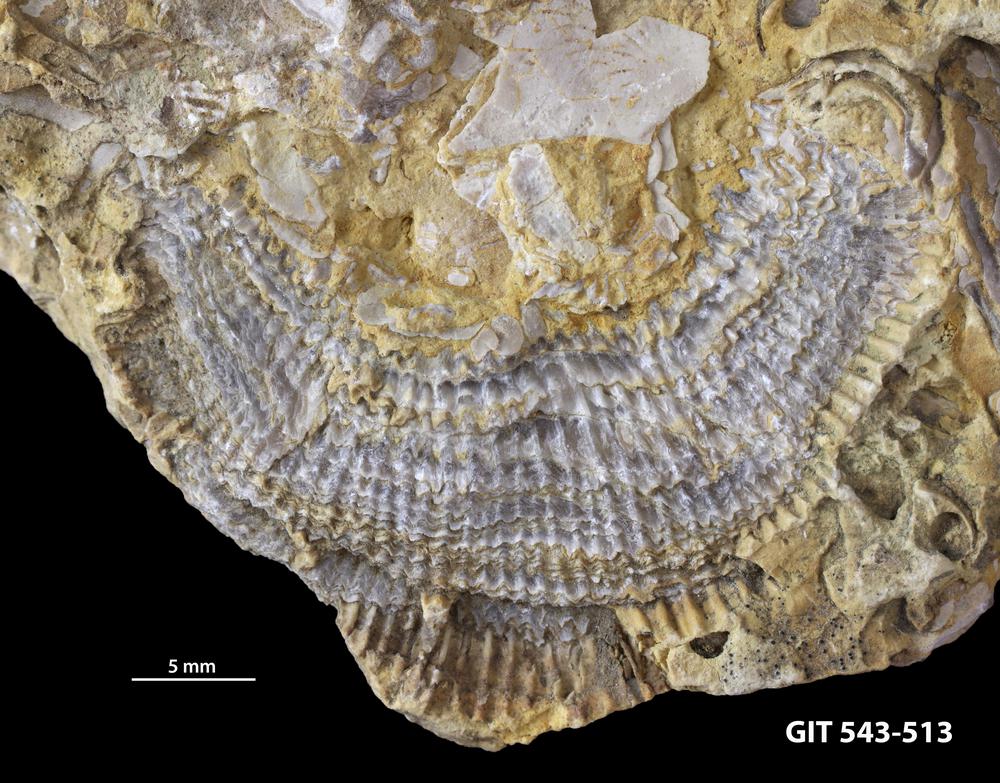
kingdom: Animalia
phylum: Brachiopoda
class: Rhynchonellata
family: Clitambonitidae
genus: Clitambonites
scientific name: Clitambonites
